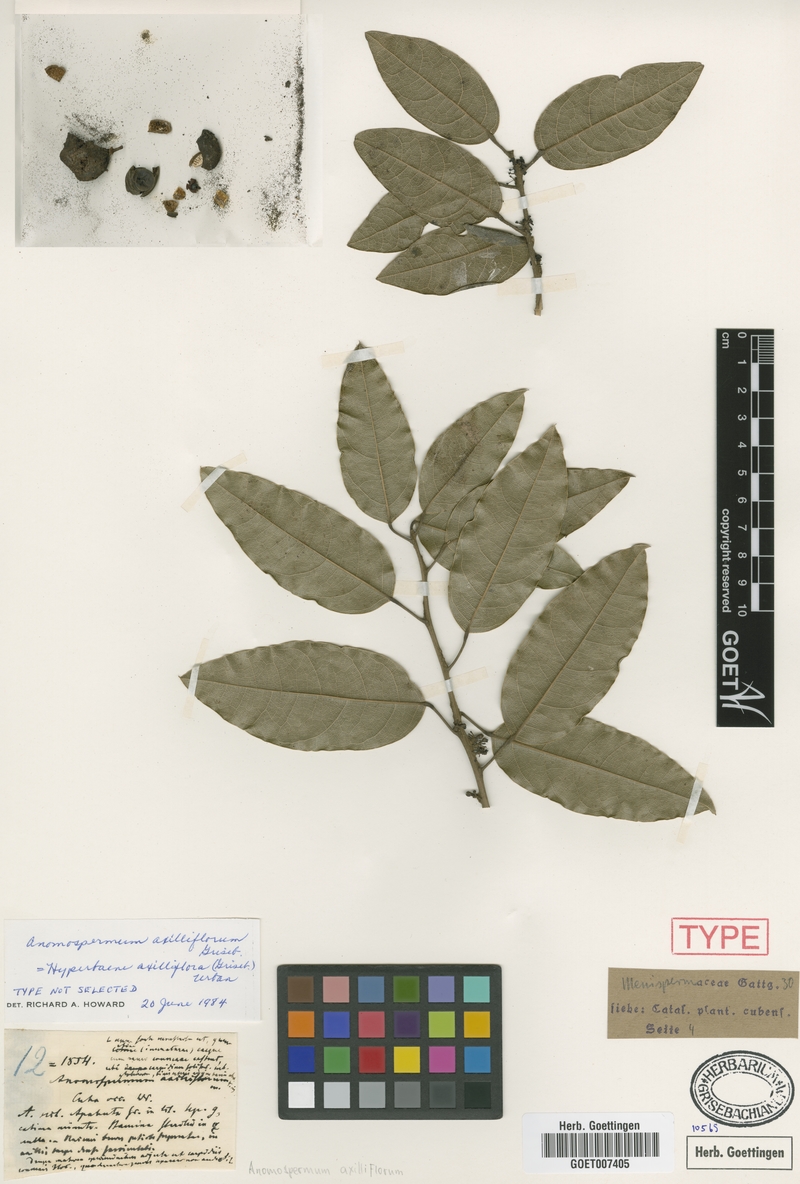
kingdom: Plantae
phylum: Tracheophyta
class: Magnoliopsida
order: Ranunculales
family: Menispermaceae
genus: Hyperbaena
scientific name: Hyperbaena axilliflora
